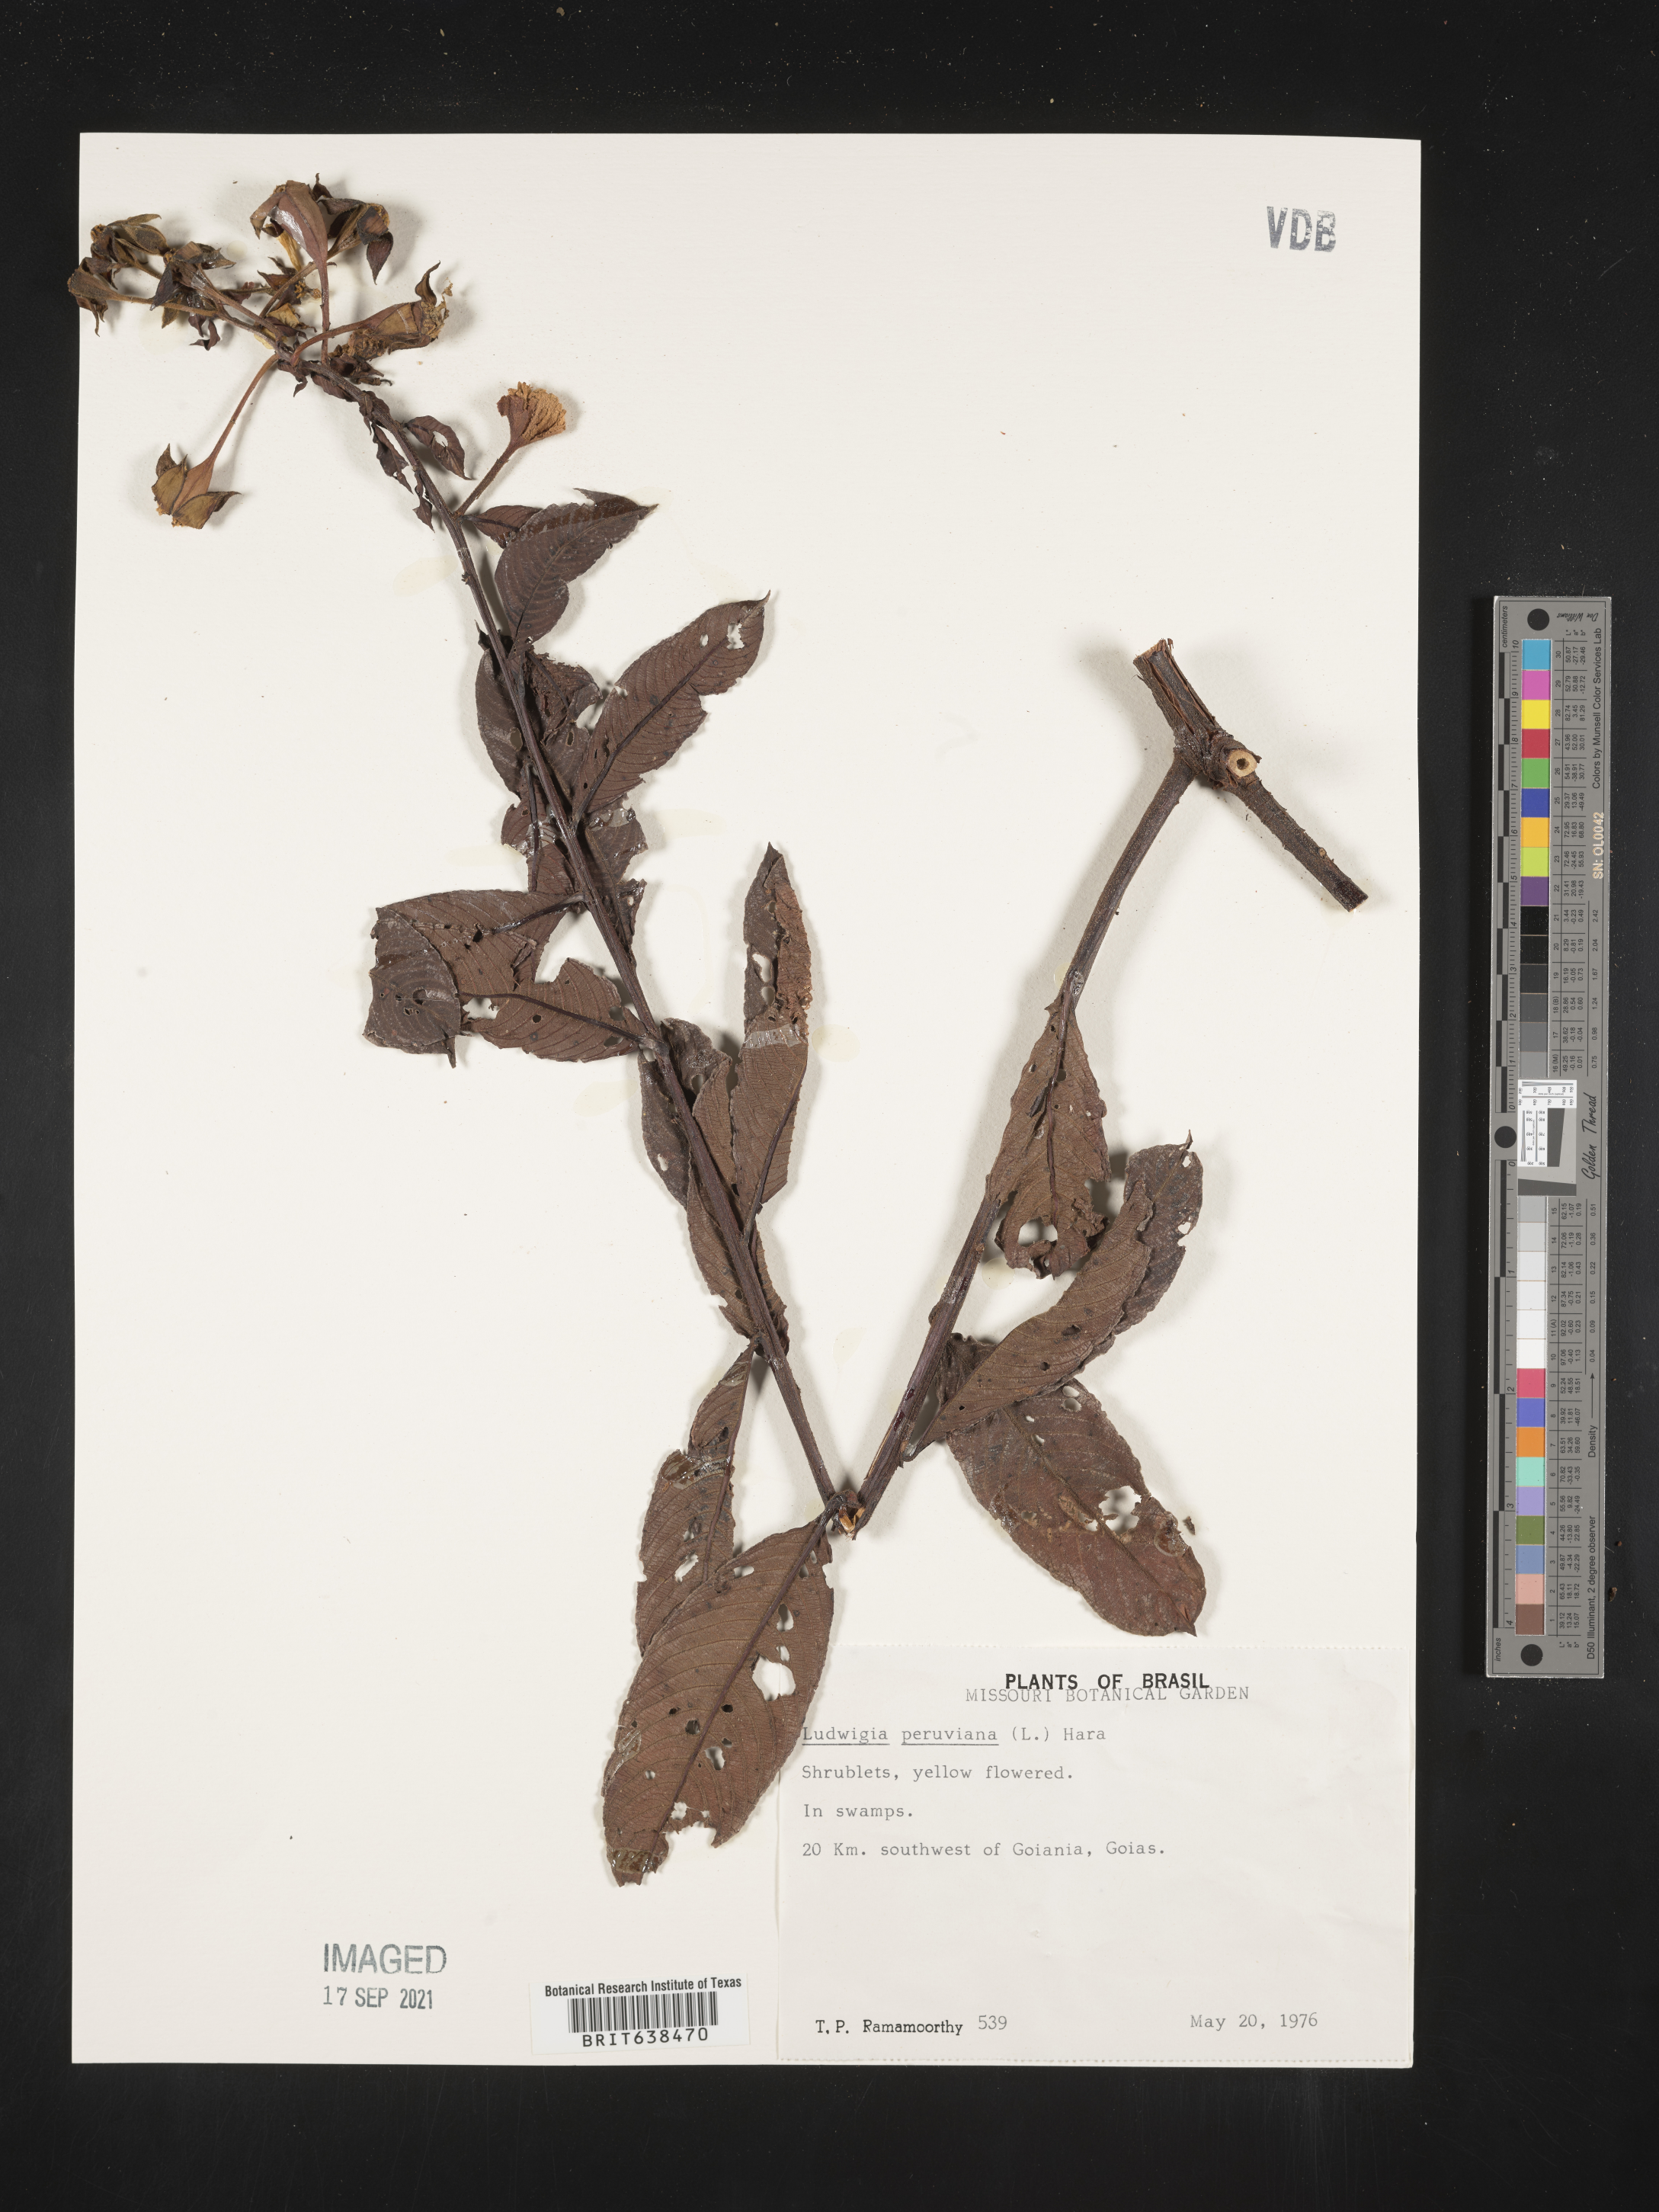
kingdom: Plantae
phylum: Tracheophyta
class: Magnoliopsida
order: Myrtales
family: Onagraceae
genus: Ludwigia
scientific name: Ludwigia
